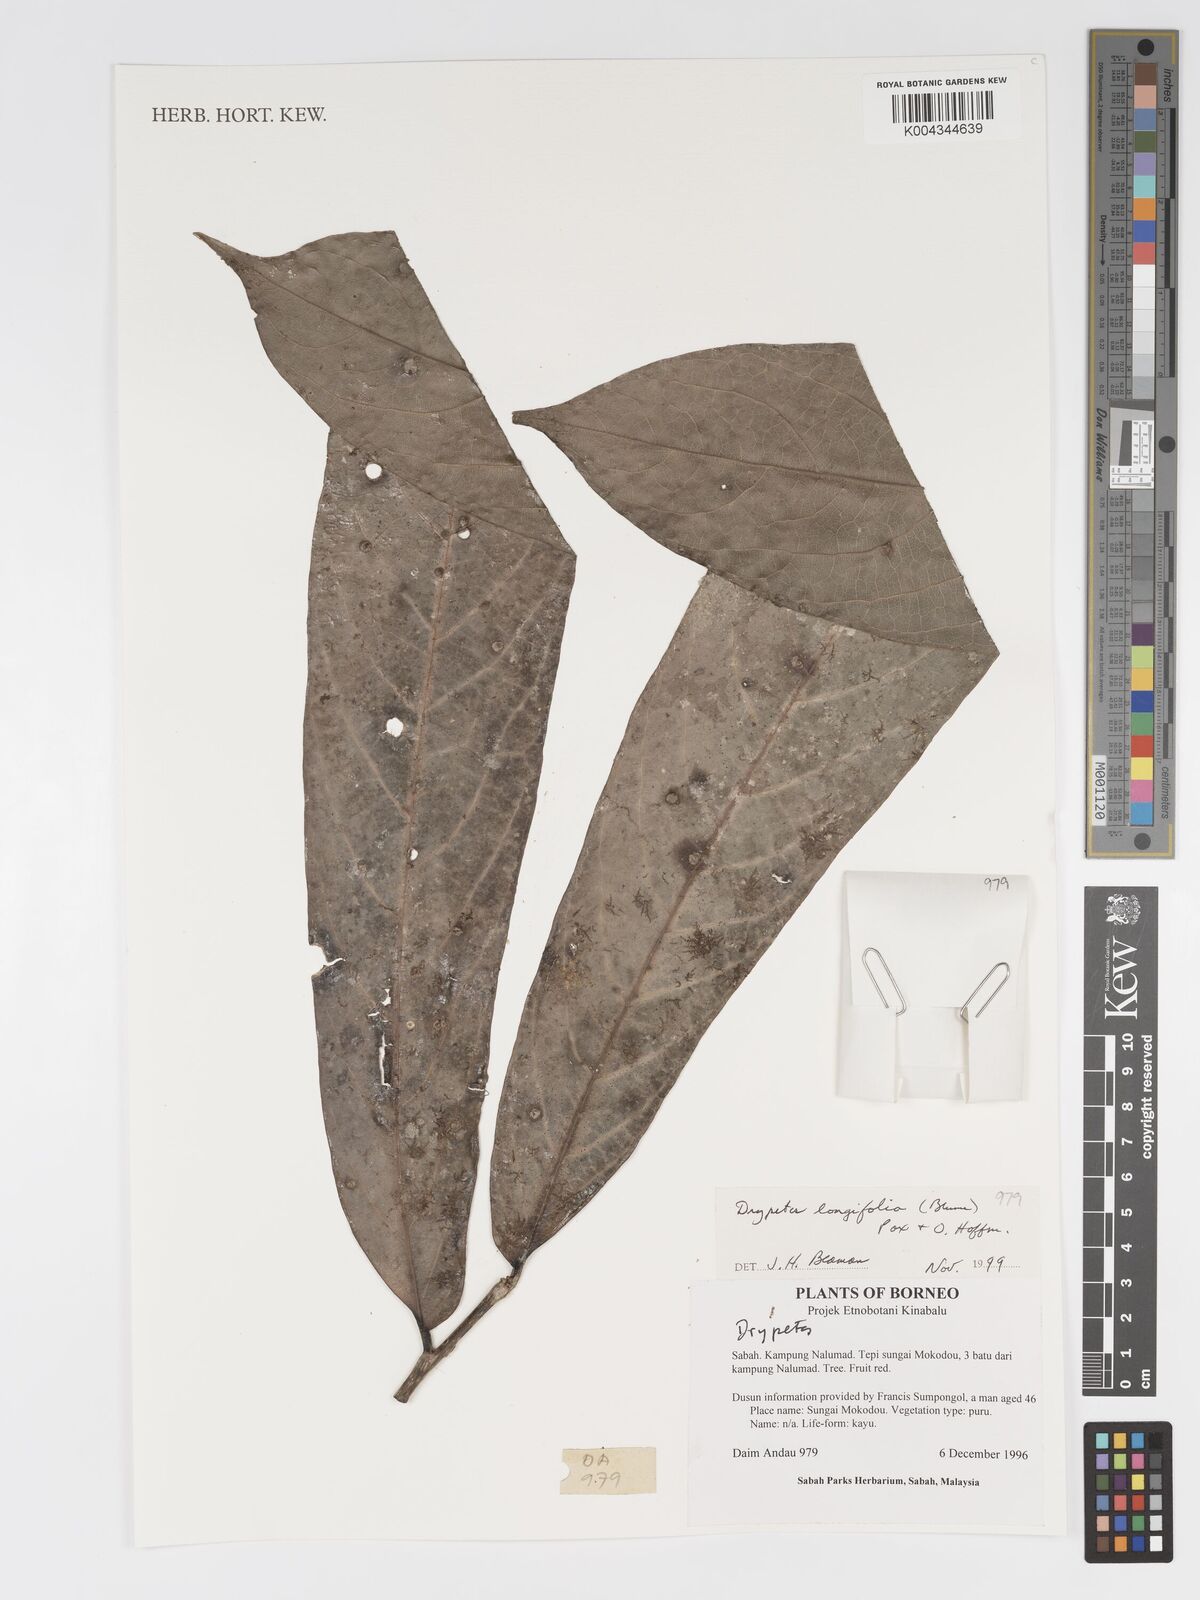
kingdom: Plantae
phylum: Tracheophyta
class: Magnoliopsida
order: Malpighiales
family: Putranjivaceae
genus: Drypetes
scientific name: Drypetes longifolia
